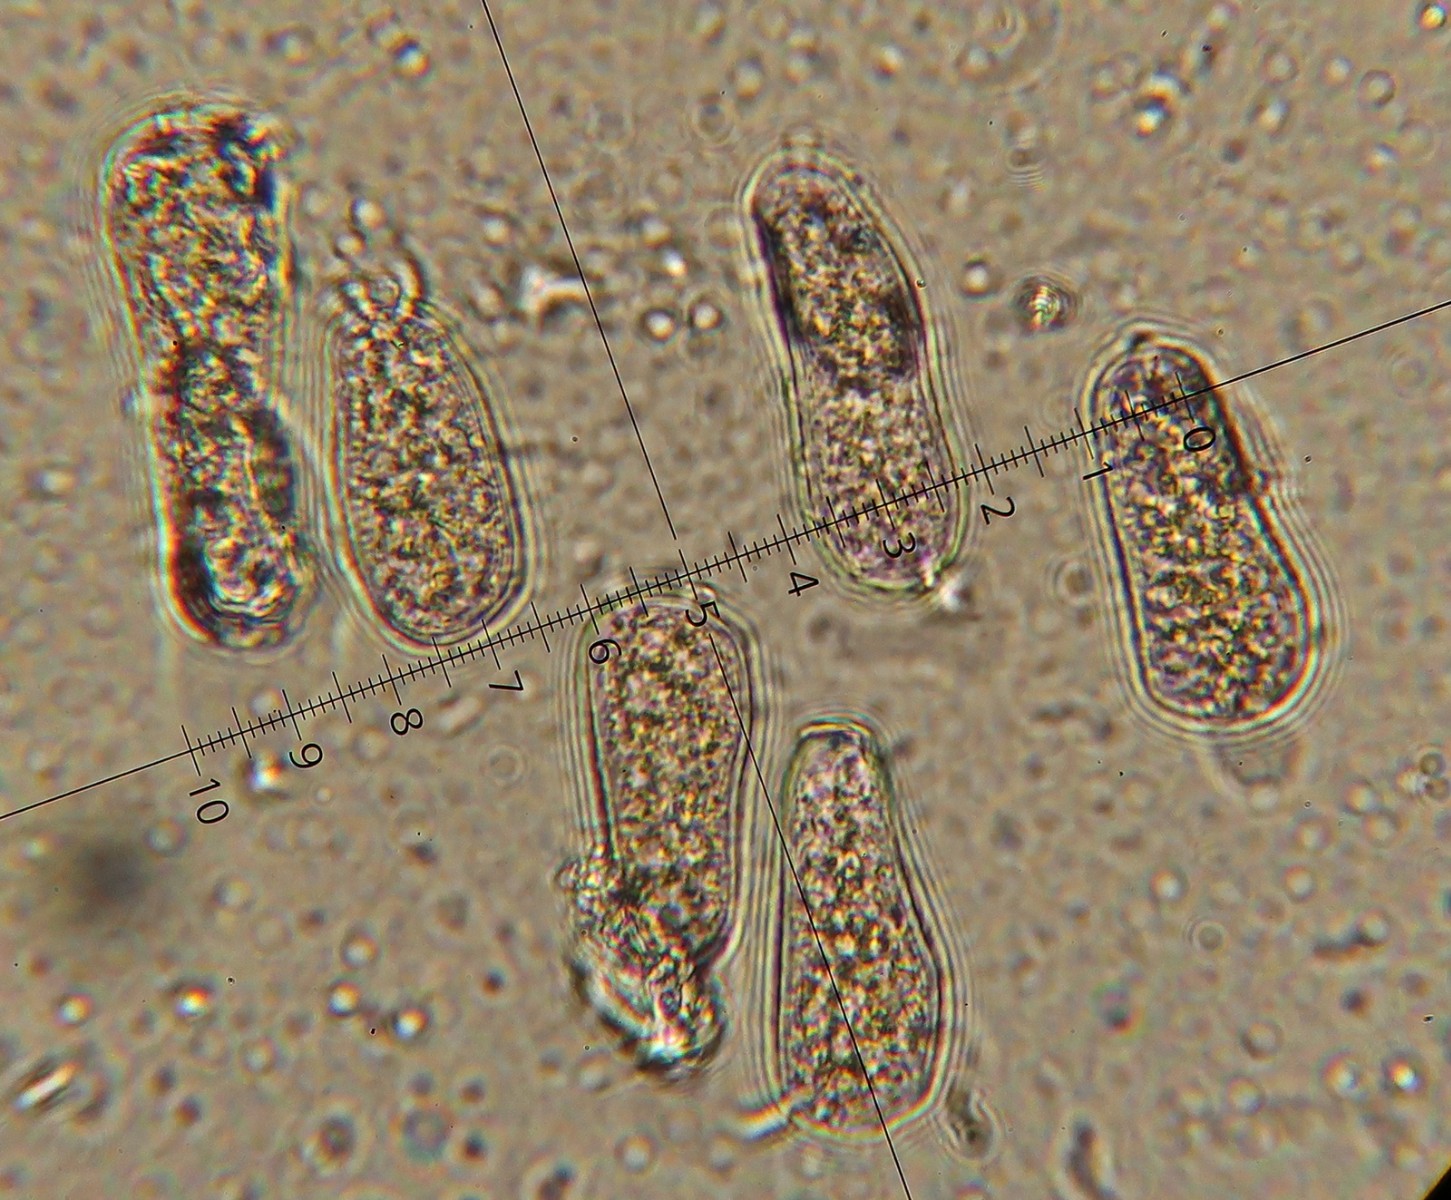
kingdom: Fungi
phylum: Basidiomycota
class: Pucciniomycetes
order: Pucciniales
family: Pucciniastraceae
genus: Melampsoridium
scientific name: Melampsoridium betulinum
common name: Birch rust
